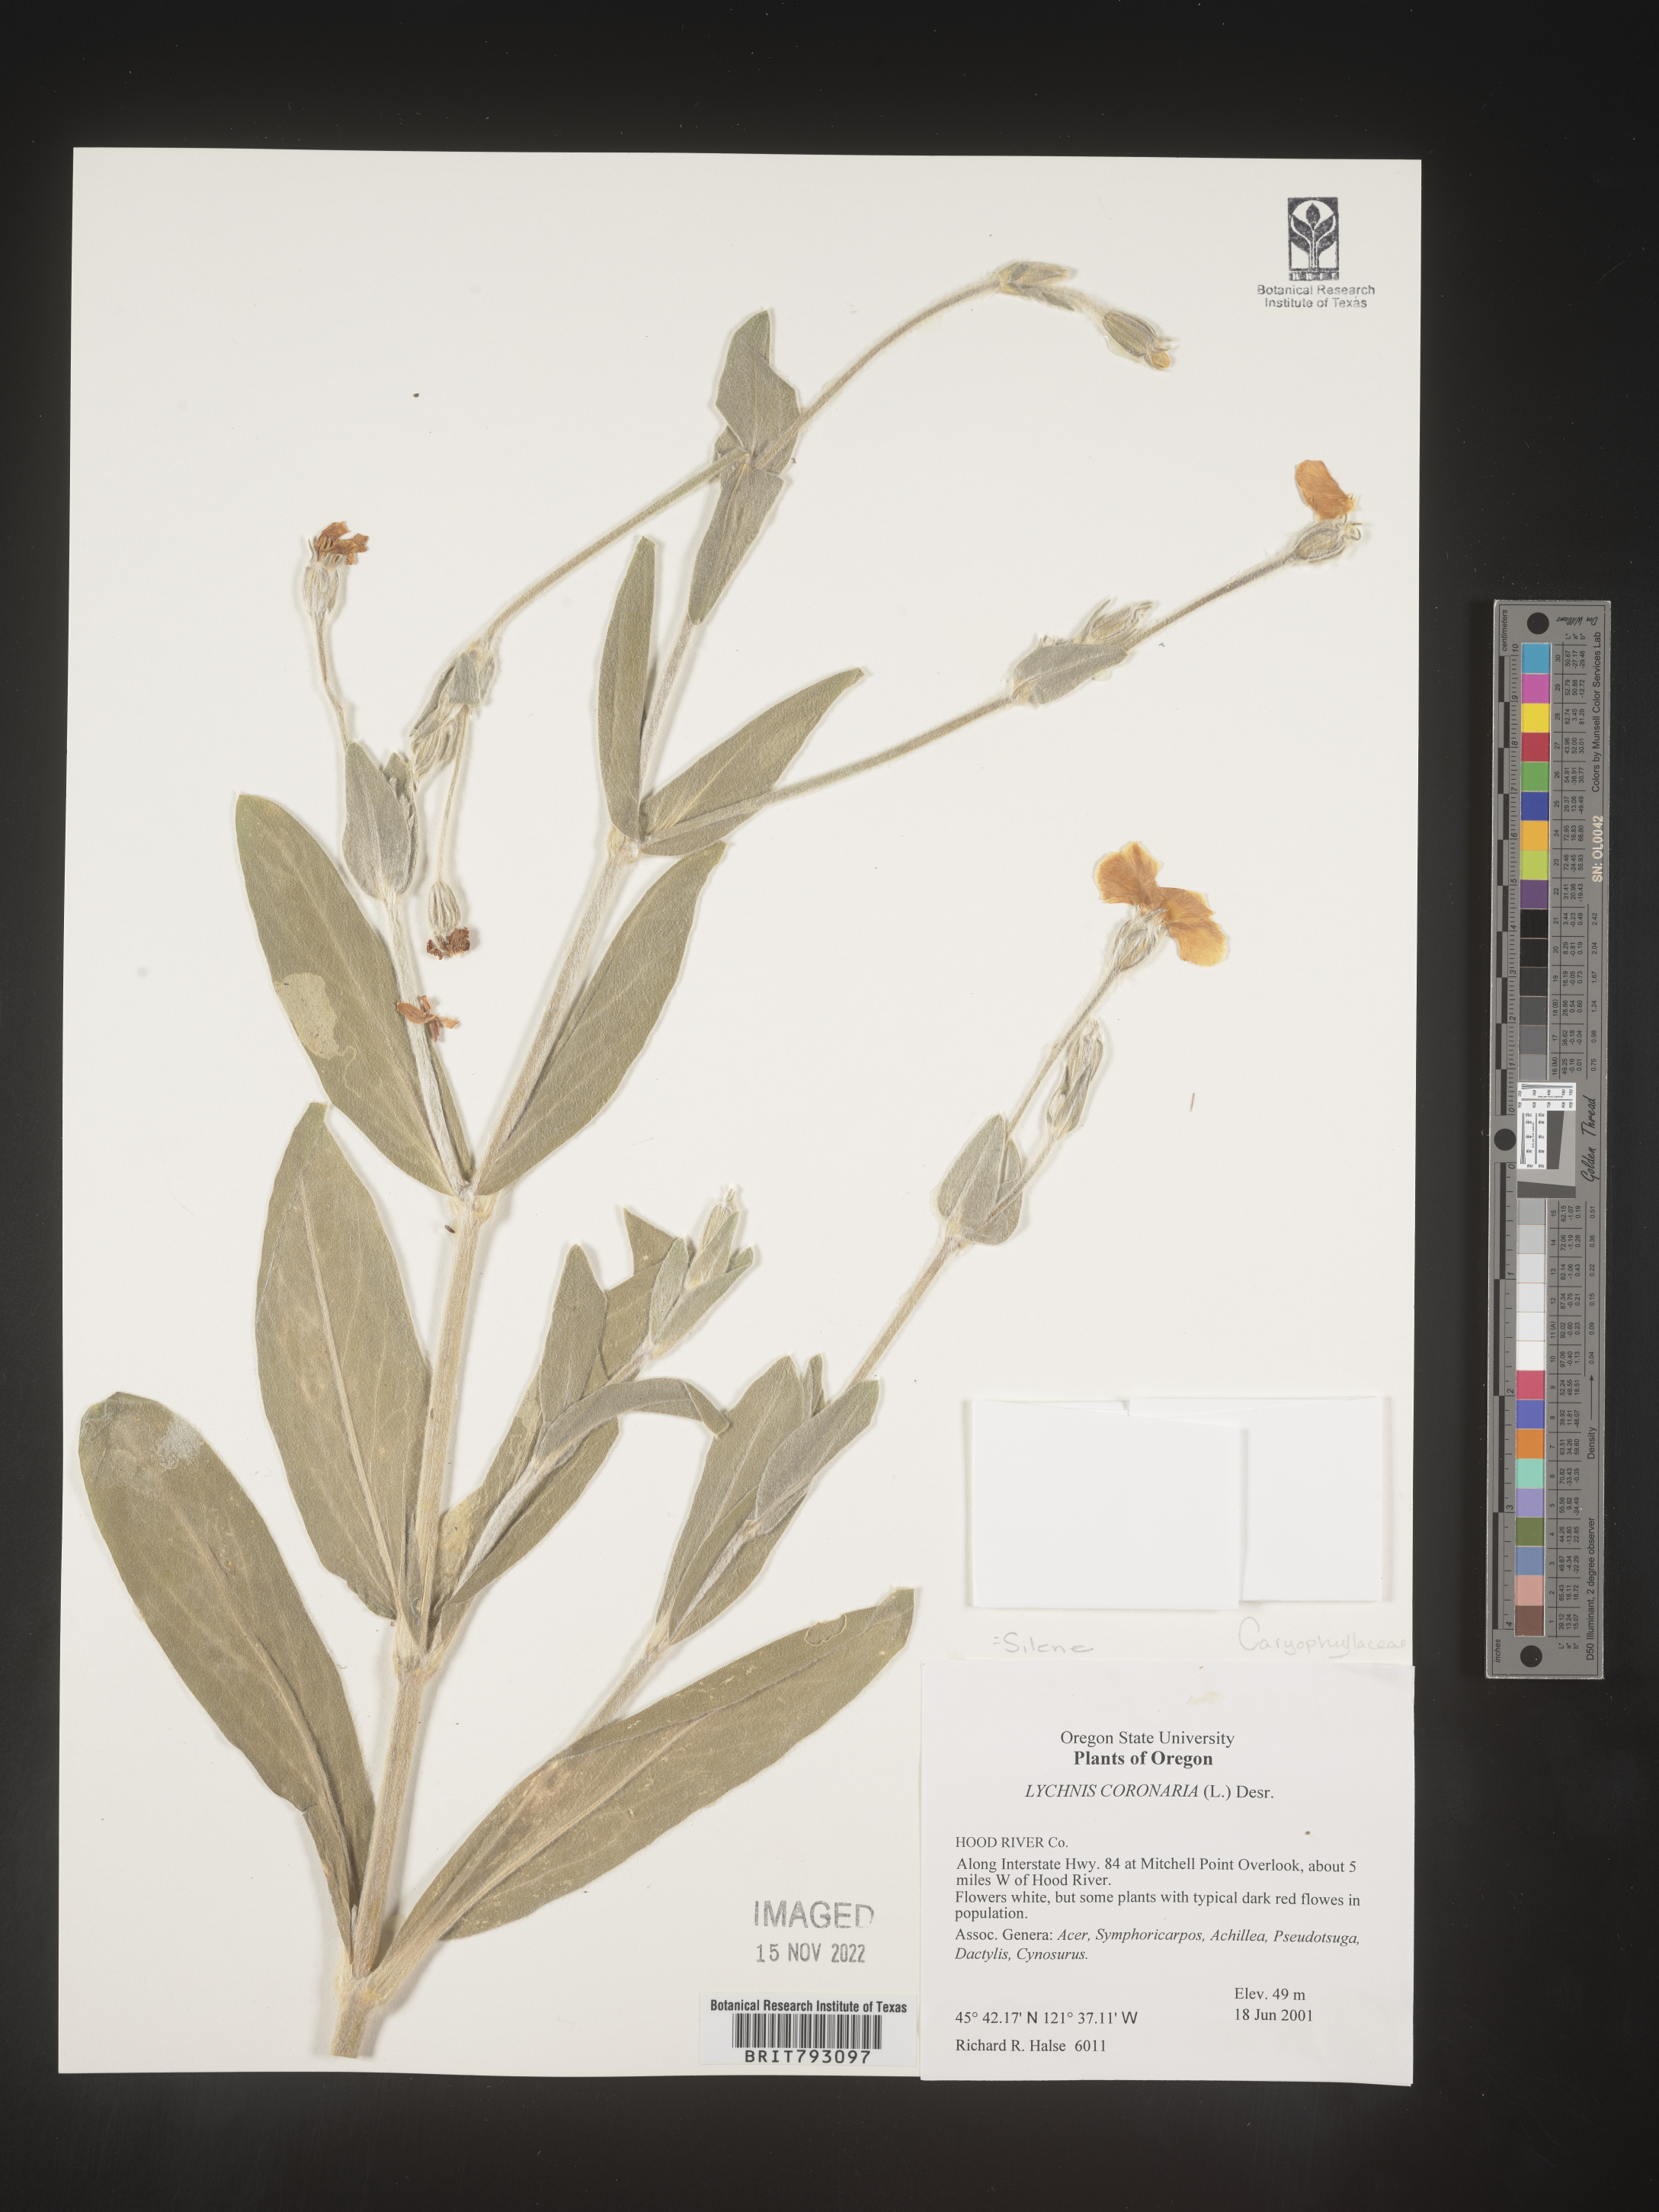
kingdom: Plantae
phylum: Tracheophyta
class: Magnoliopsida
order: Caryophyllales
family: Caryophyllaceae
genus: Silene
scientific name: Silene coronaria
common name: Rose campion
